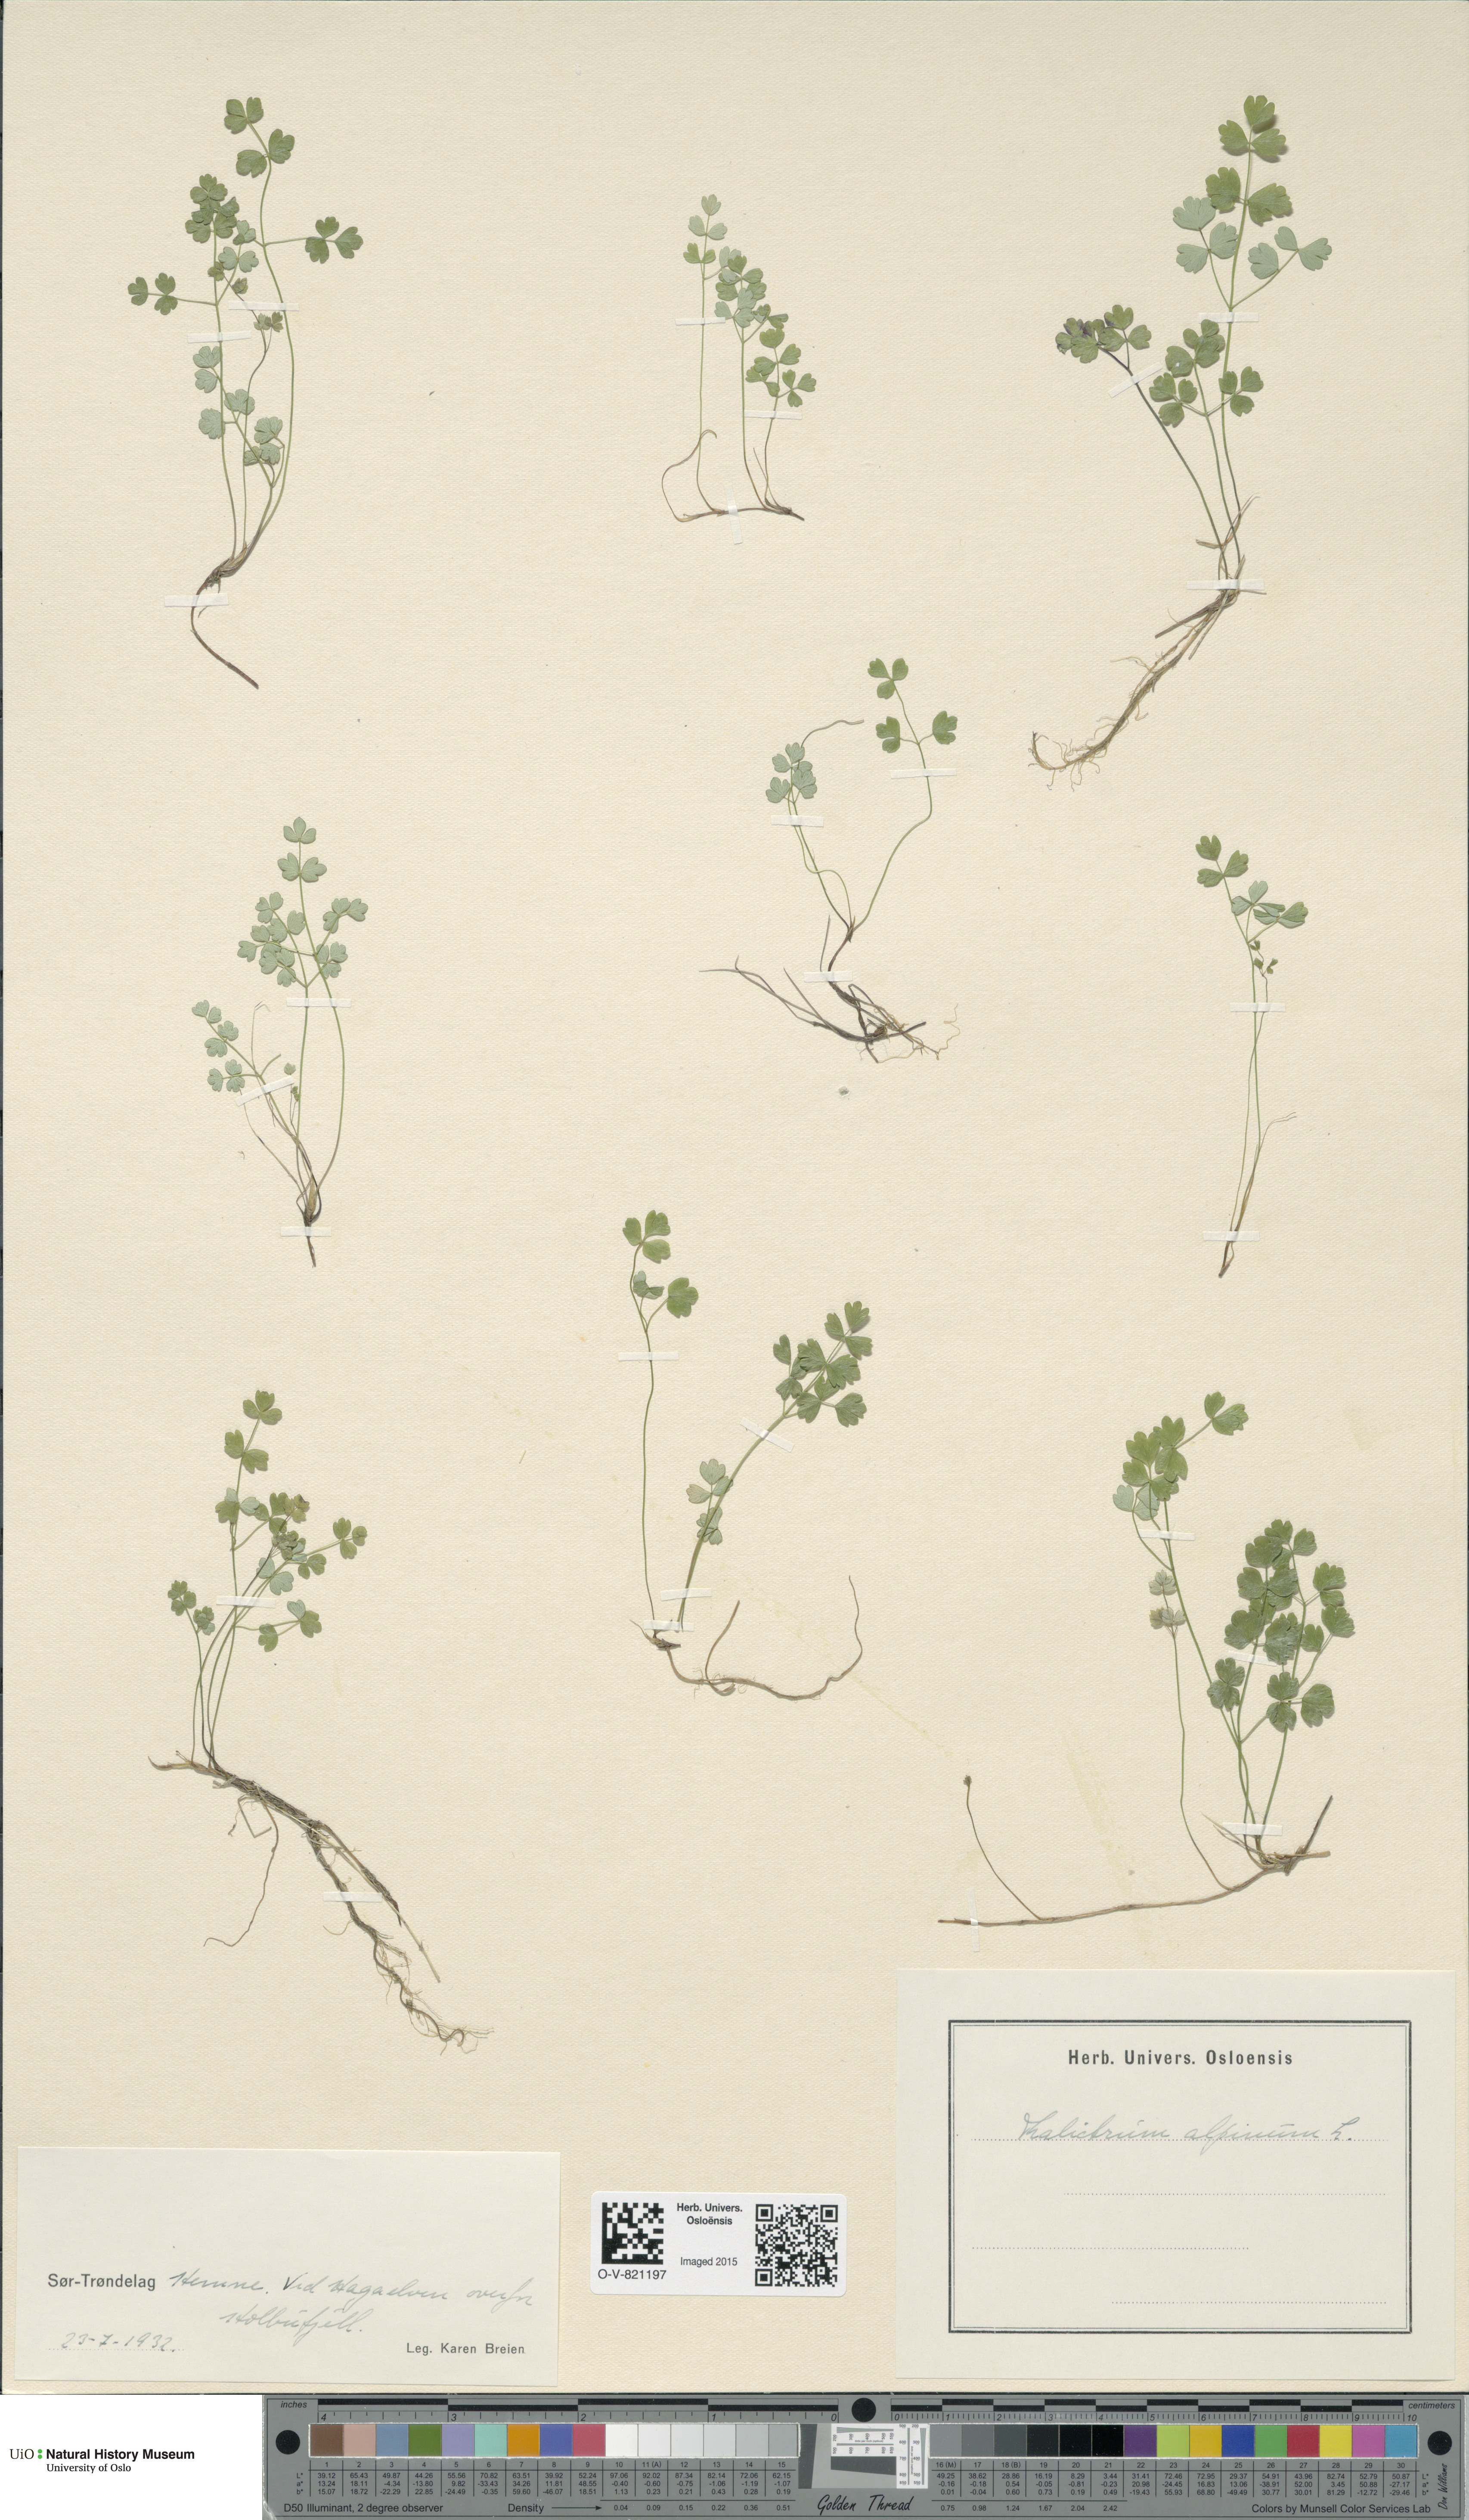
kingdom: Plantae
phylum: Tracheophyta
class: Magnoliopsida
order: Ranunculales
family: Ranunculaceae
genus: Thalictrum
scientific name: Thalictrum alpinum
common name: Alpine meadow-rue
